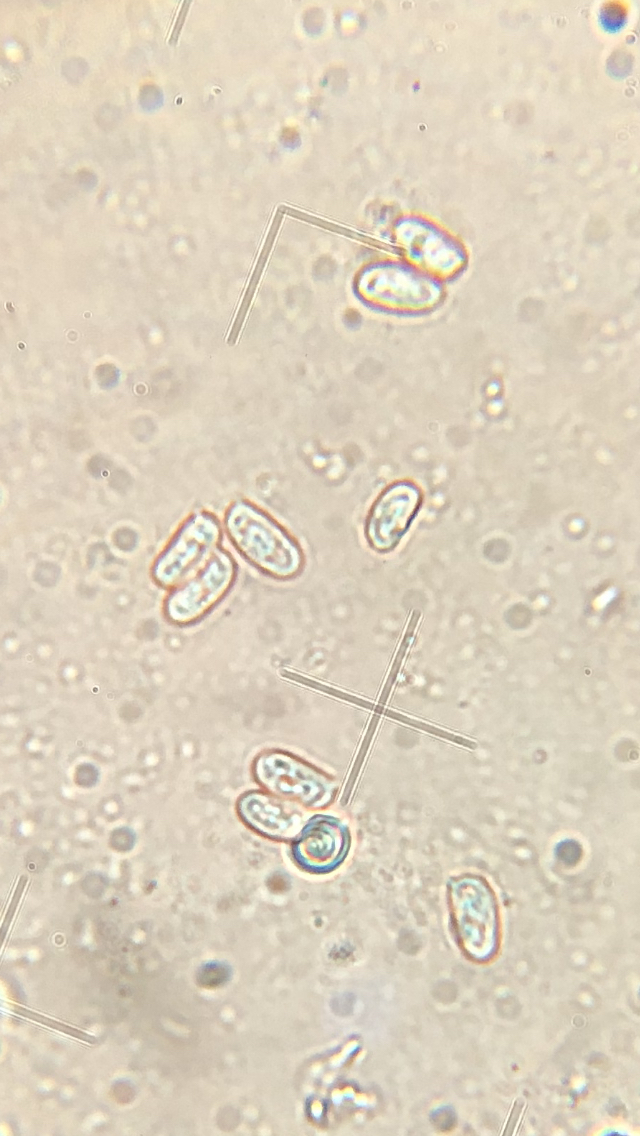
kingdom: Fungi
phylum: Basidiomycota
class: Agaricomycetes
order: Agaricales
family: Agaricaceae
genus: Lepiota
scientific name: Lepiota subincarnata
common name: kødfarvet parasolhat
